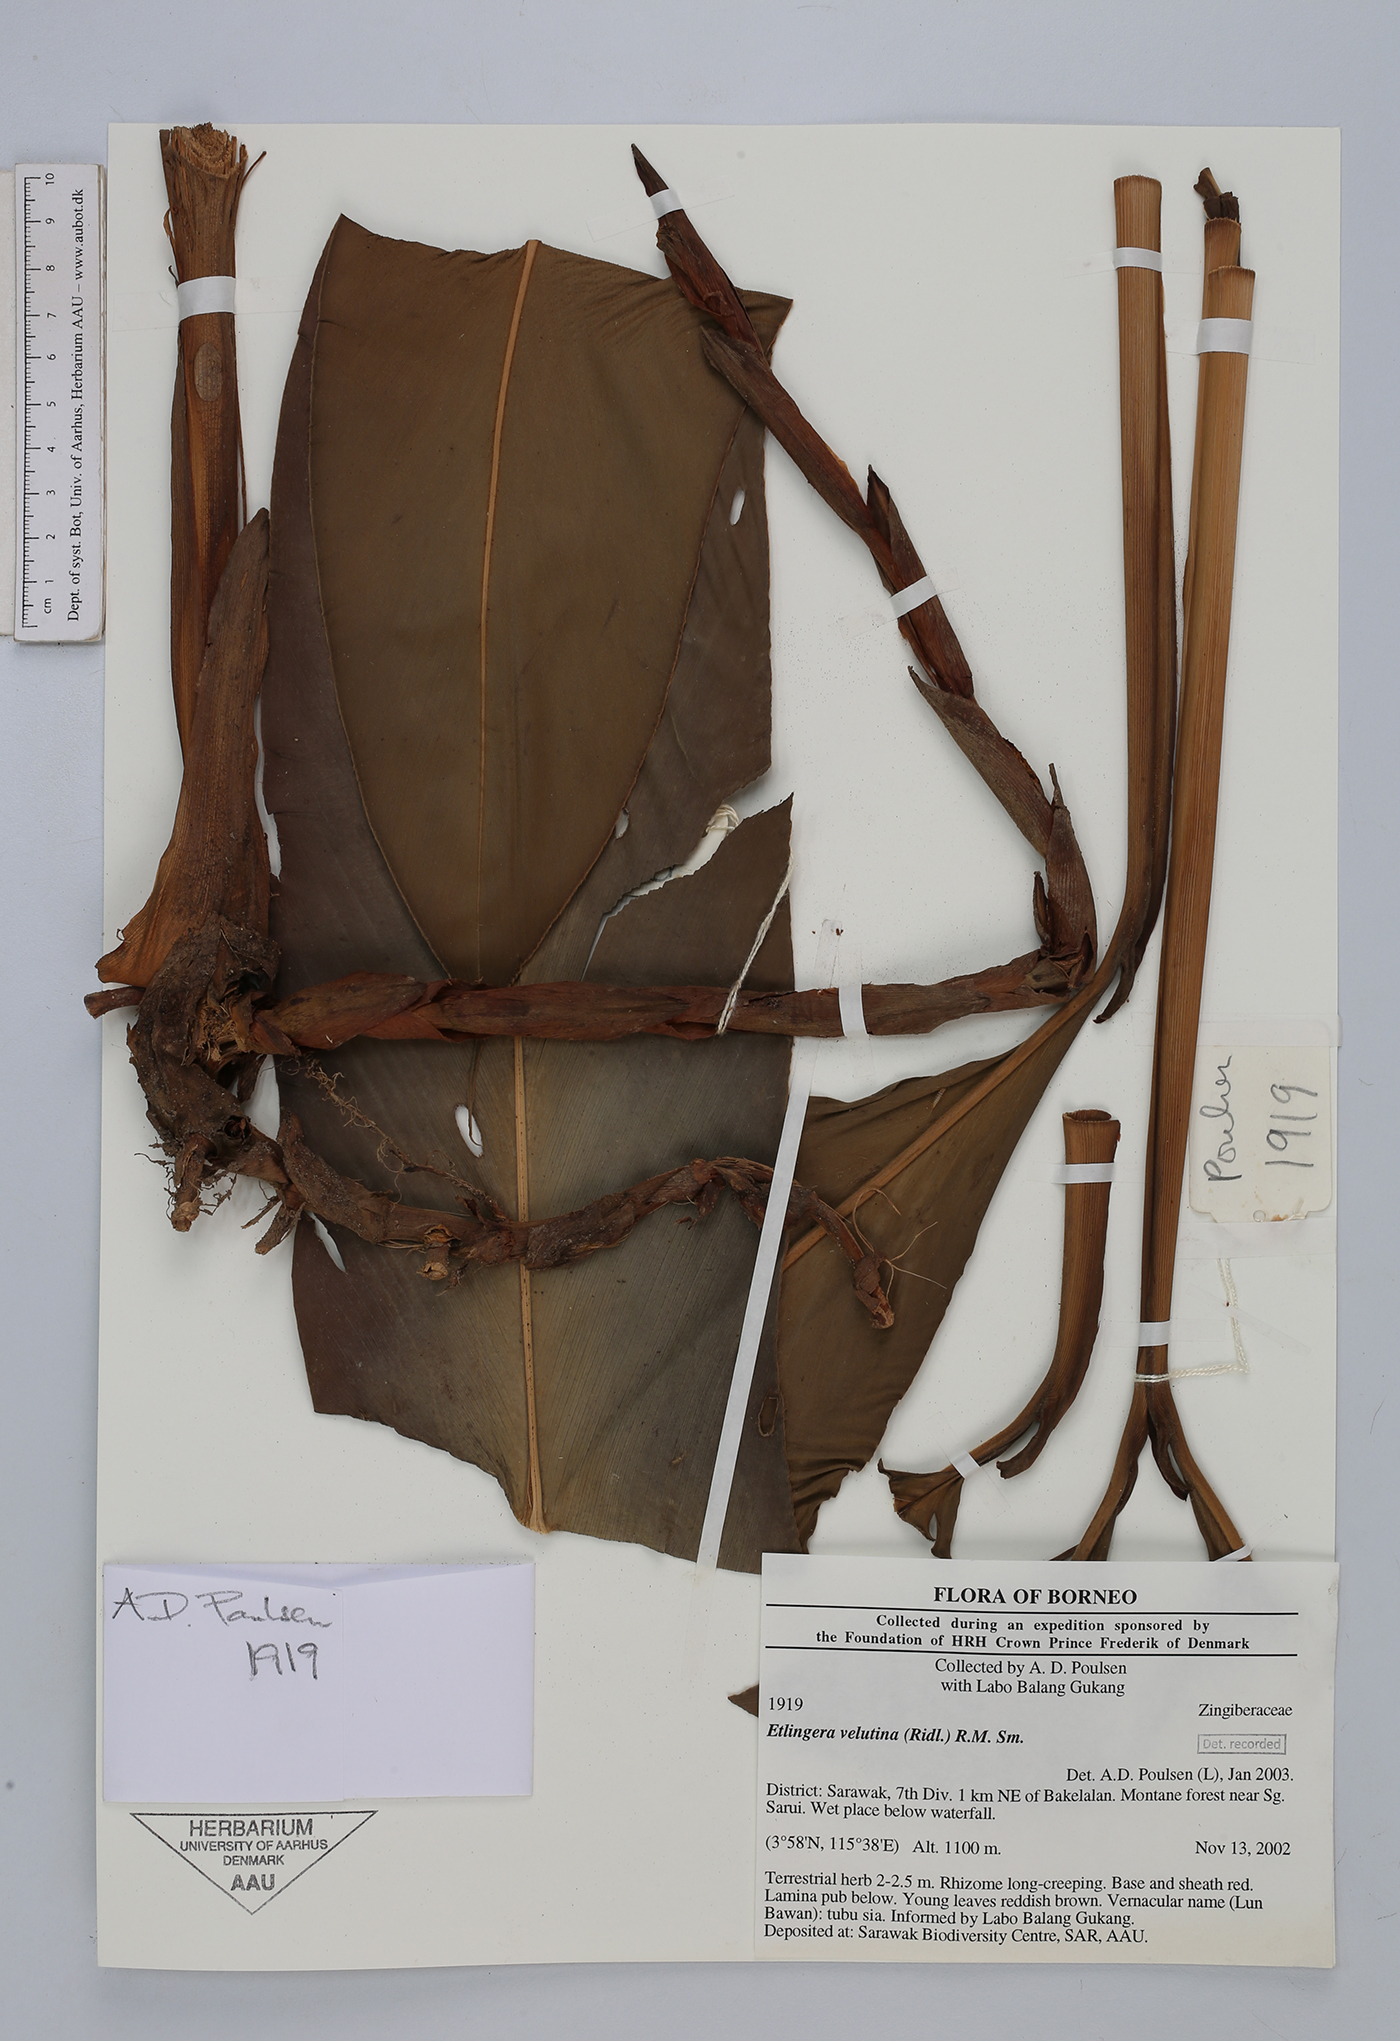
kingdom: Plantae
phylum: Tracheophyta
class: Liliopsida
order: Zingiberales
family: Zingiberaceae
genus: Etlingera
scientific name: Etlingera velutina
